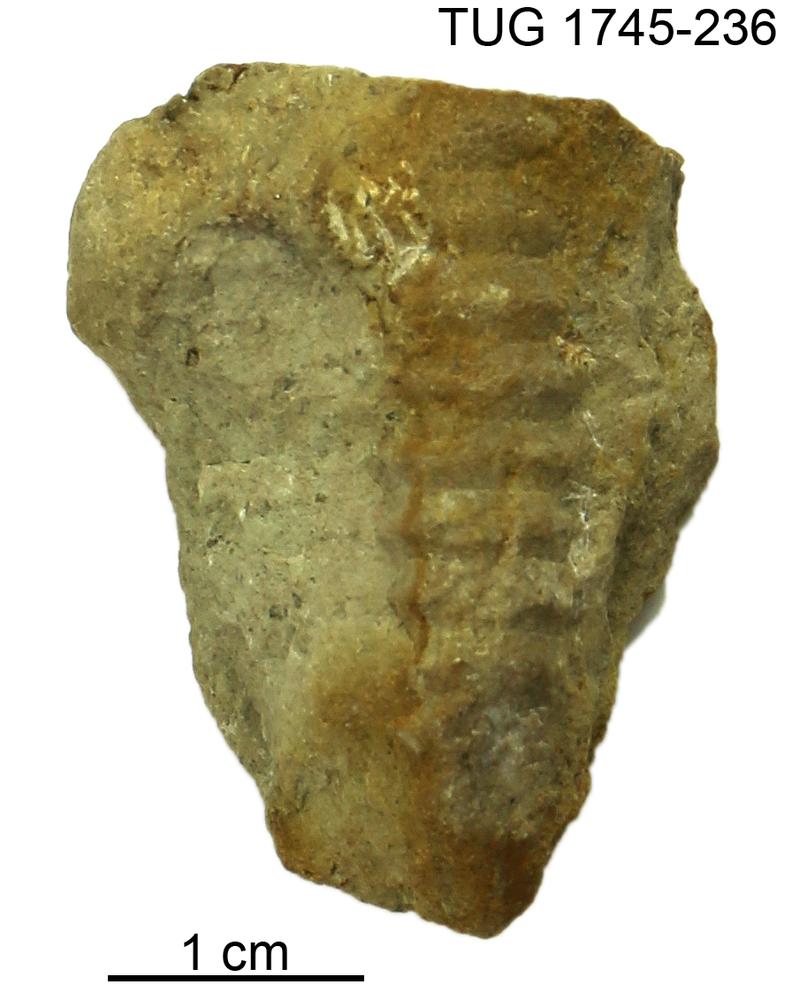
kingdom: Animalia
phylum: Mollusca
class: Cephalopoda
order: Nautilida
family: Nautilidae
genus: Dawsonoceras
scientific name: Dawsonoceras
